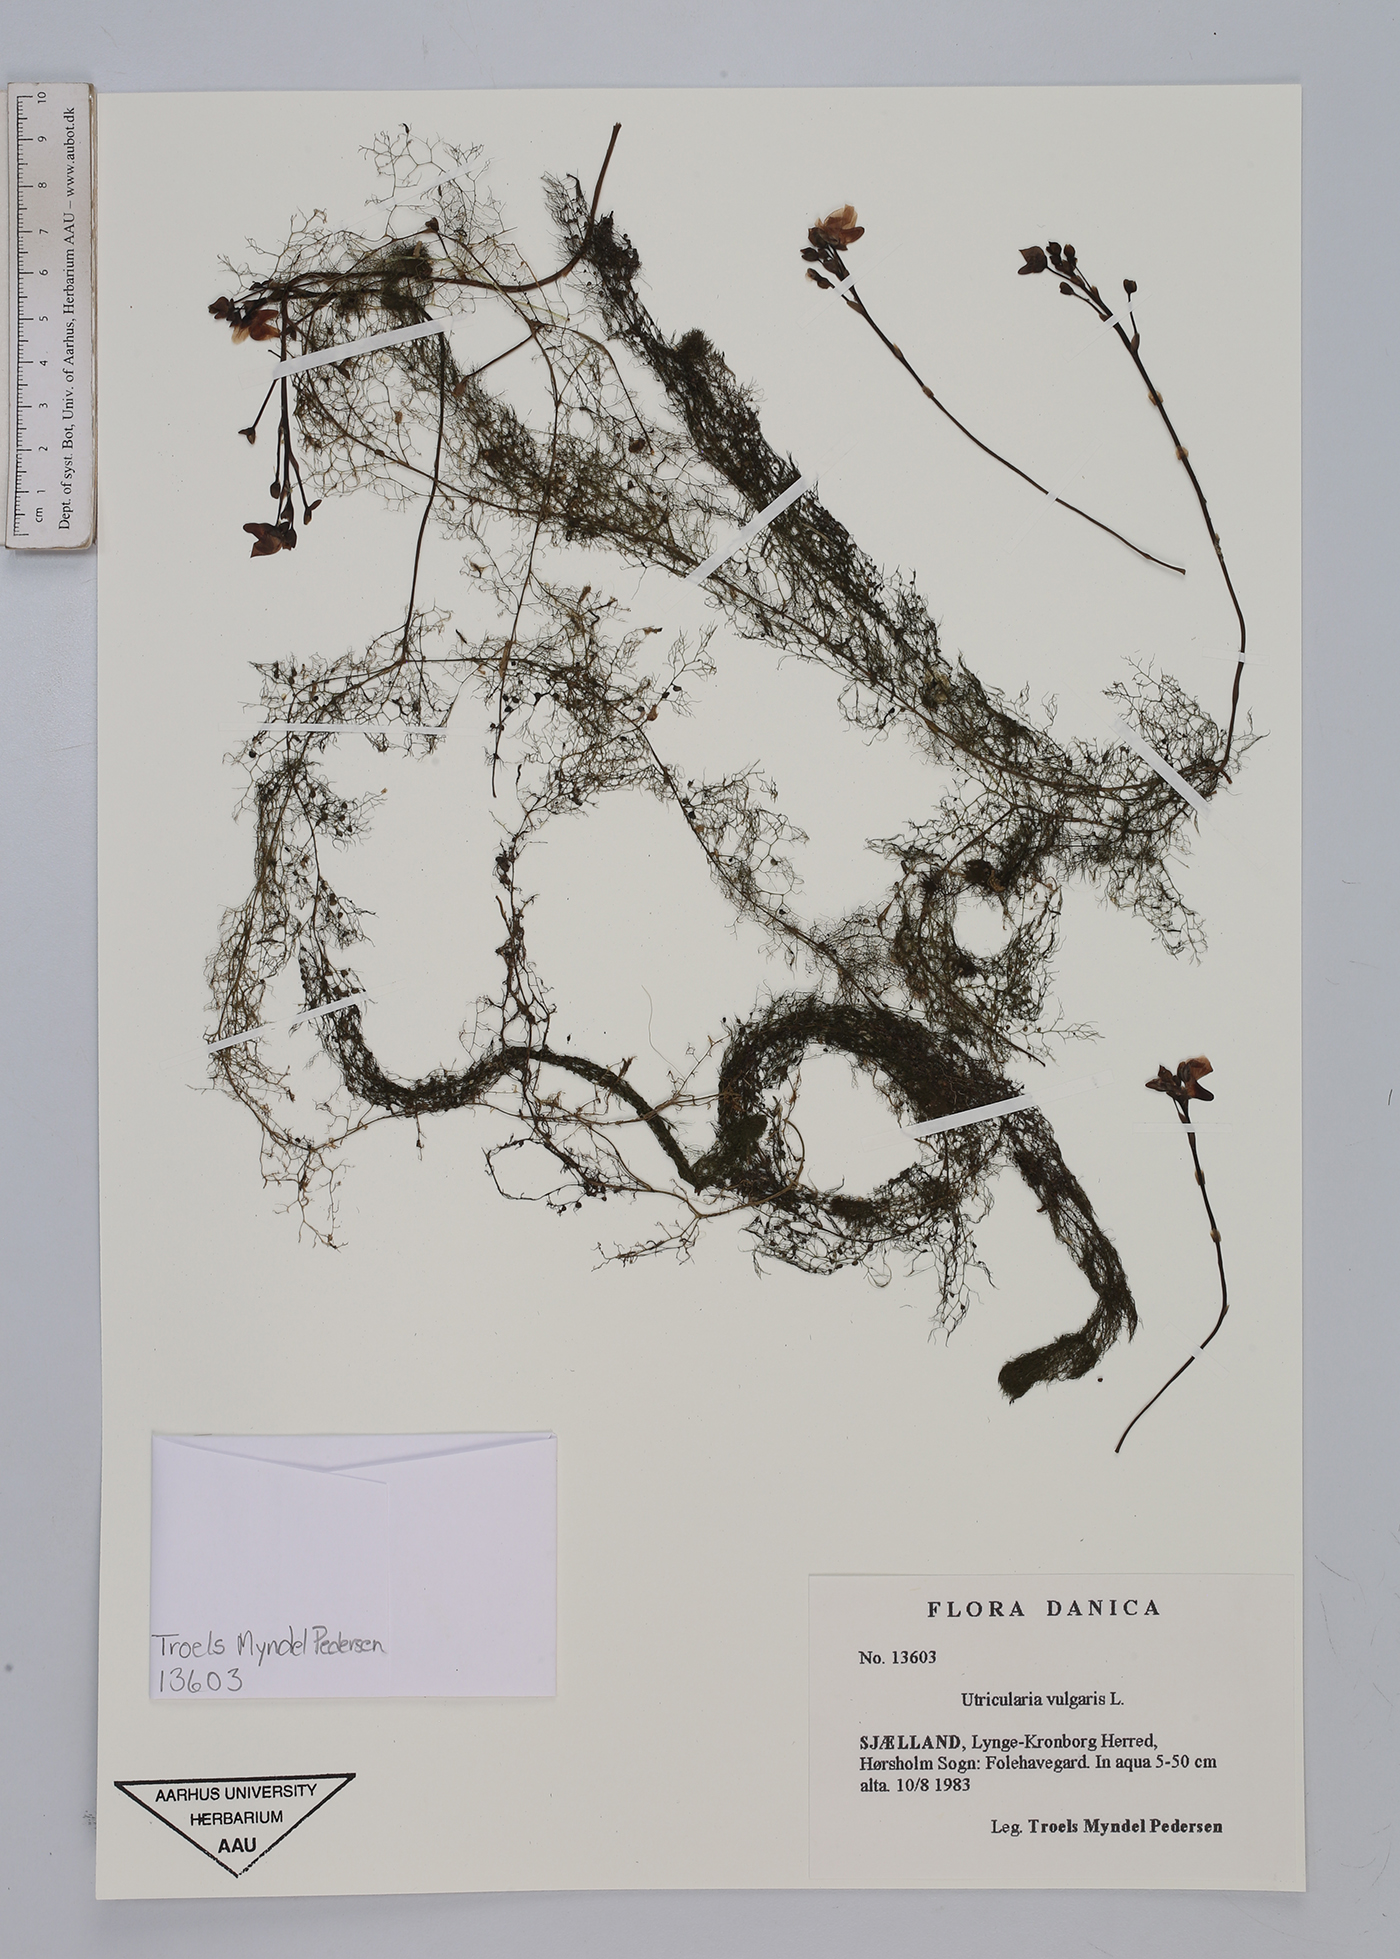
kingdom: Plantae
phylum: Tracheophyta
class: Magnoliopsida
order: Lamiales
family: Lentibulariaceae
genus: Utricularia
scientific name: Utricularia vulgaris
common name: Greater bladderwort
